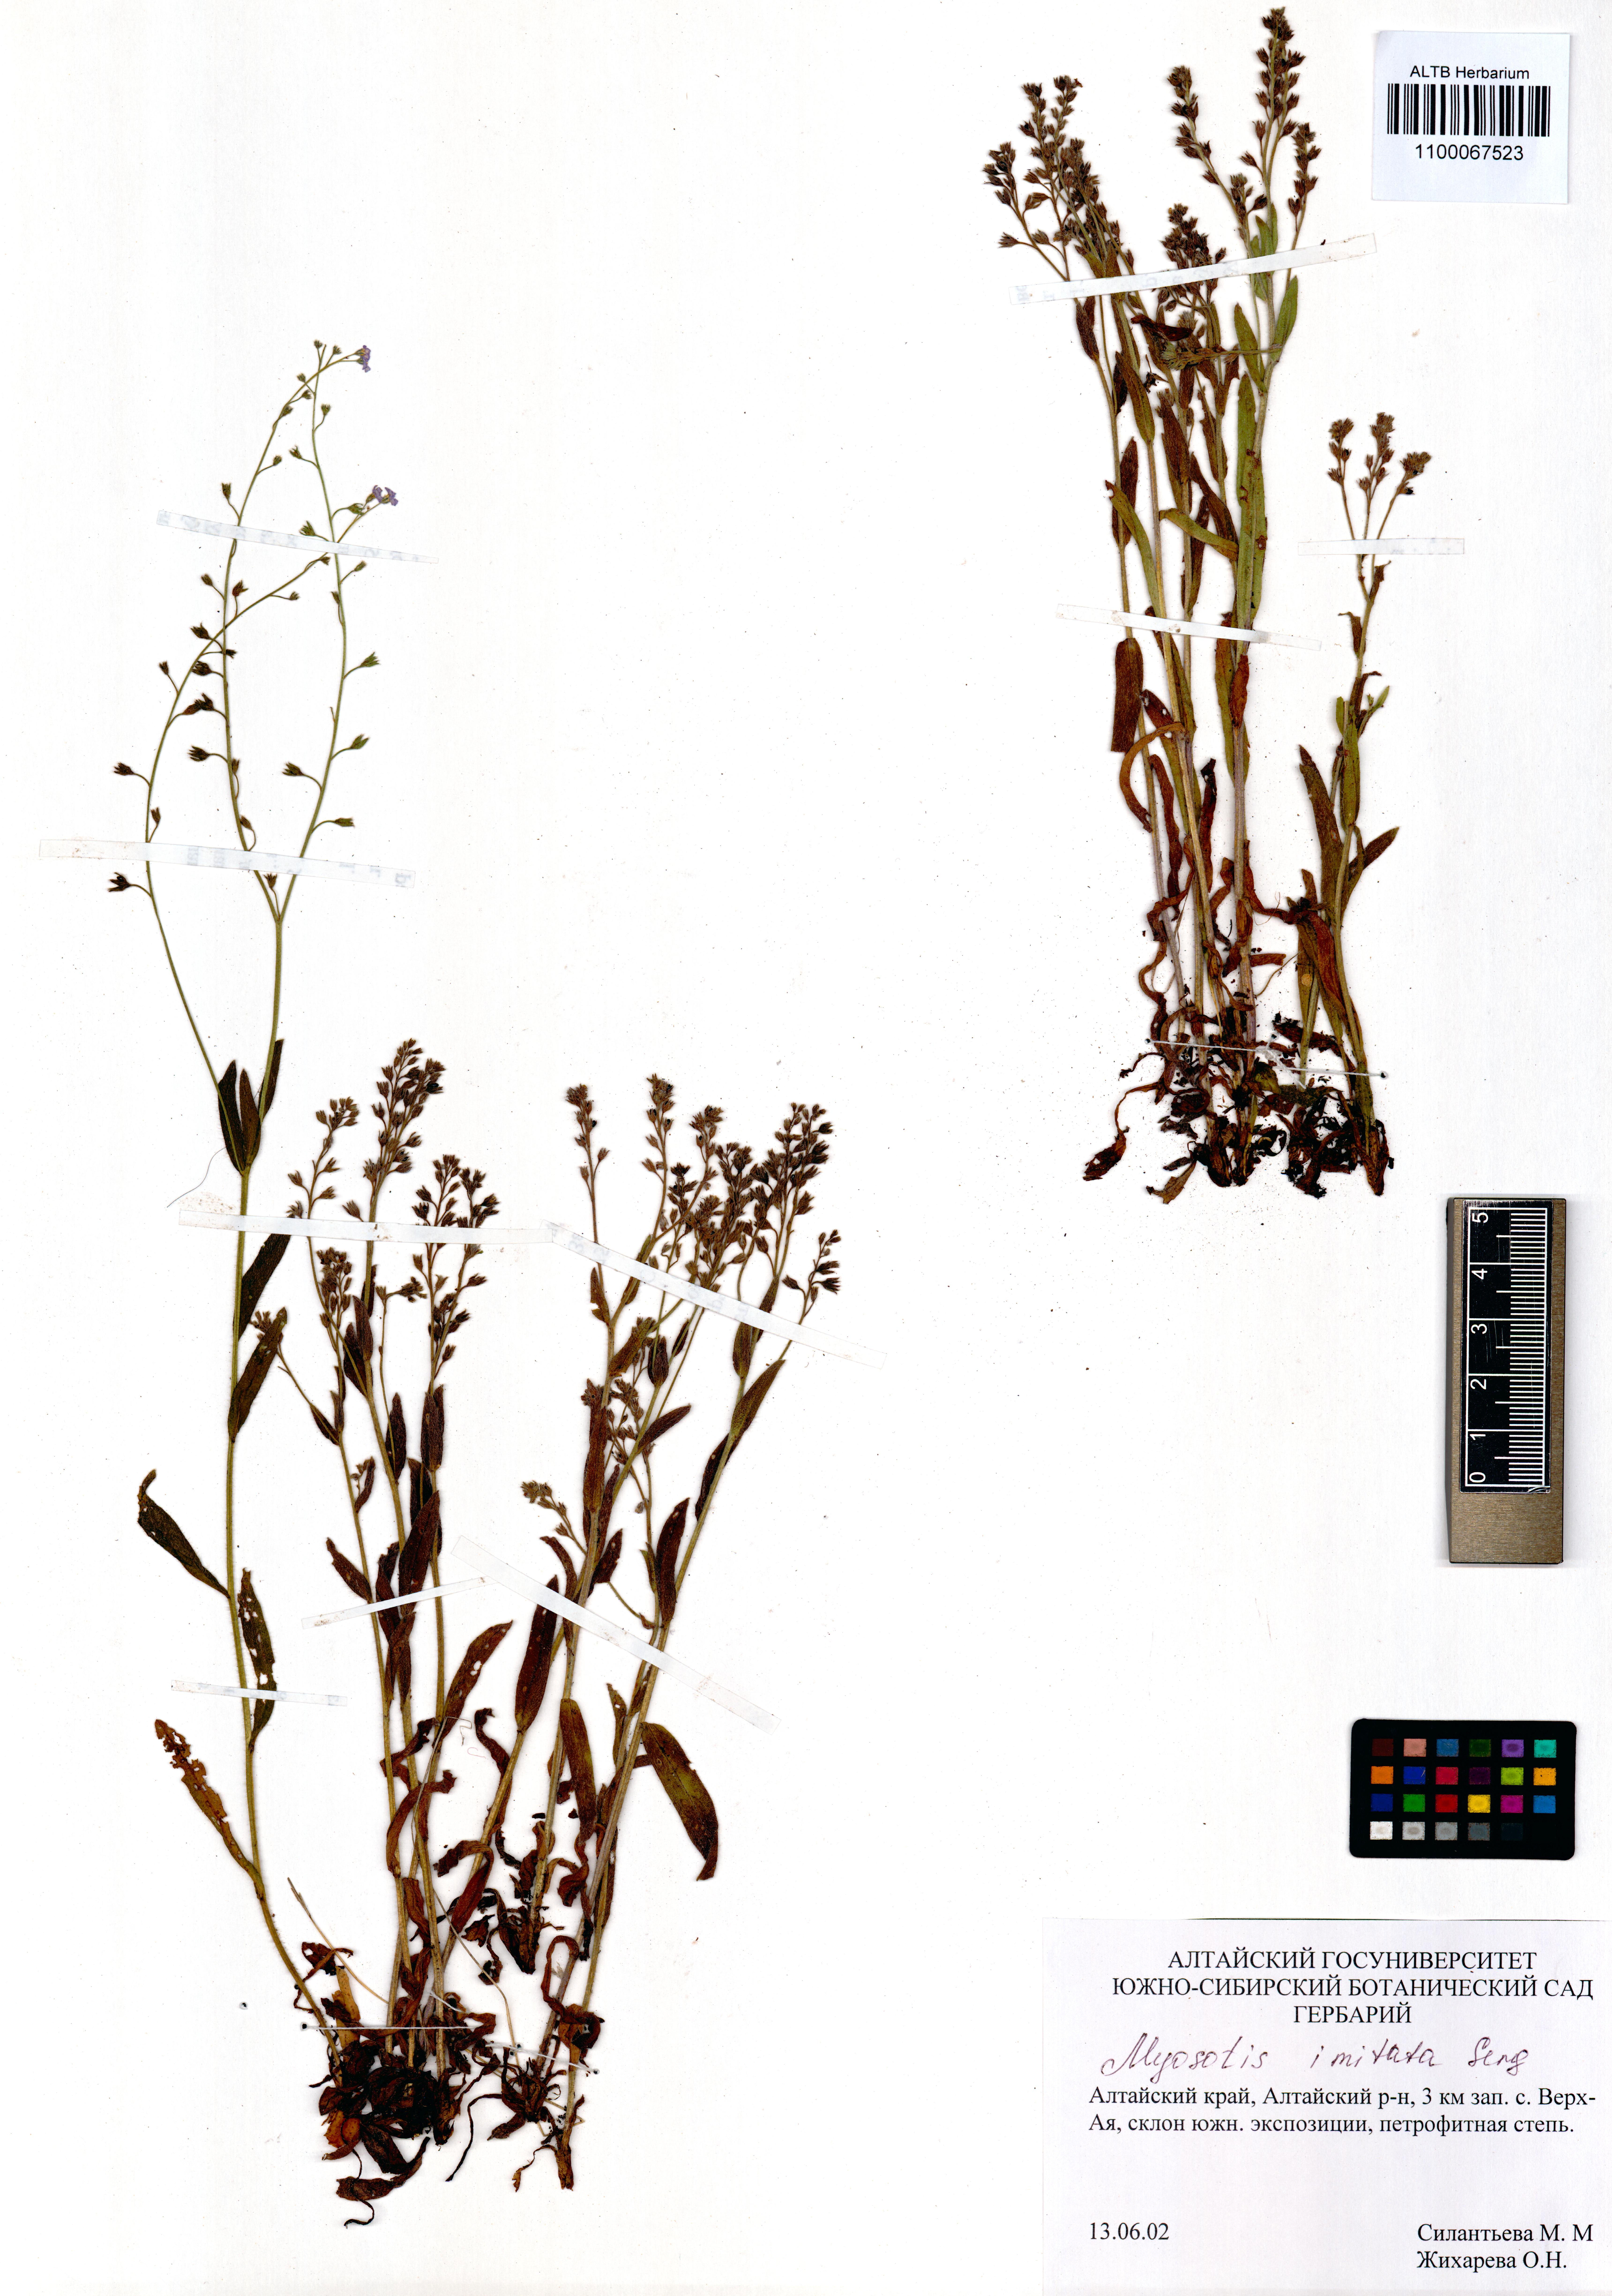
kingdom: Plantae
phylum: Tracheophyta
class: Magnoliopsida
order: Boraginales
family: Boraginaceae
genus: Myosotis
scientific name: Myosotis imitata
